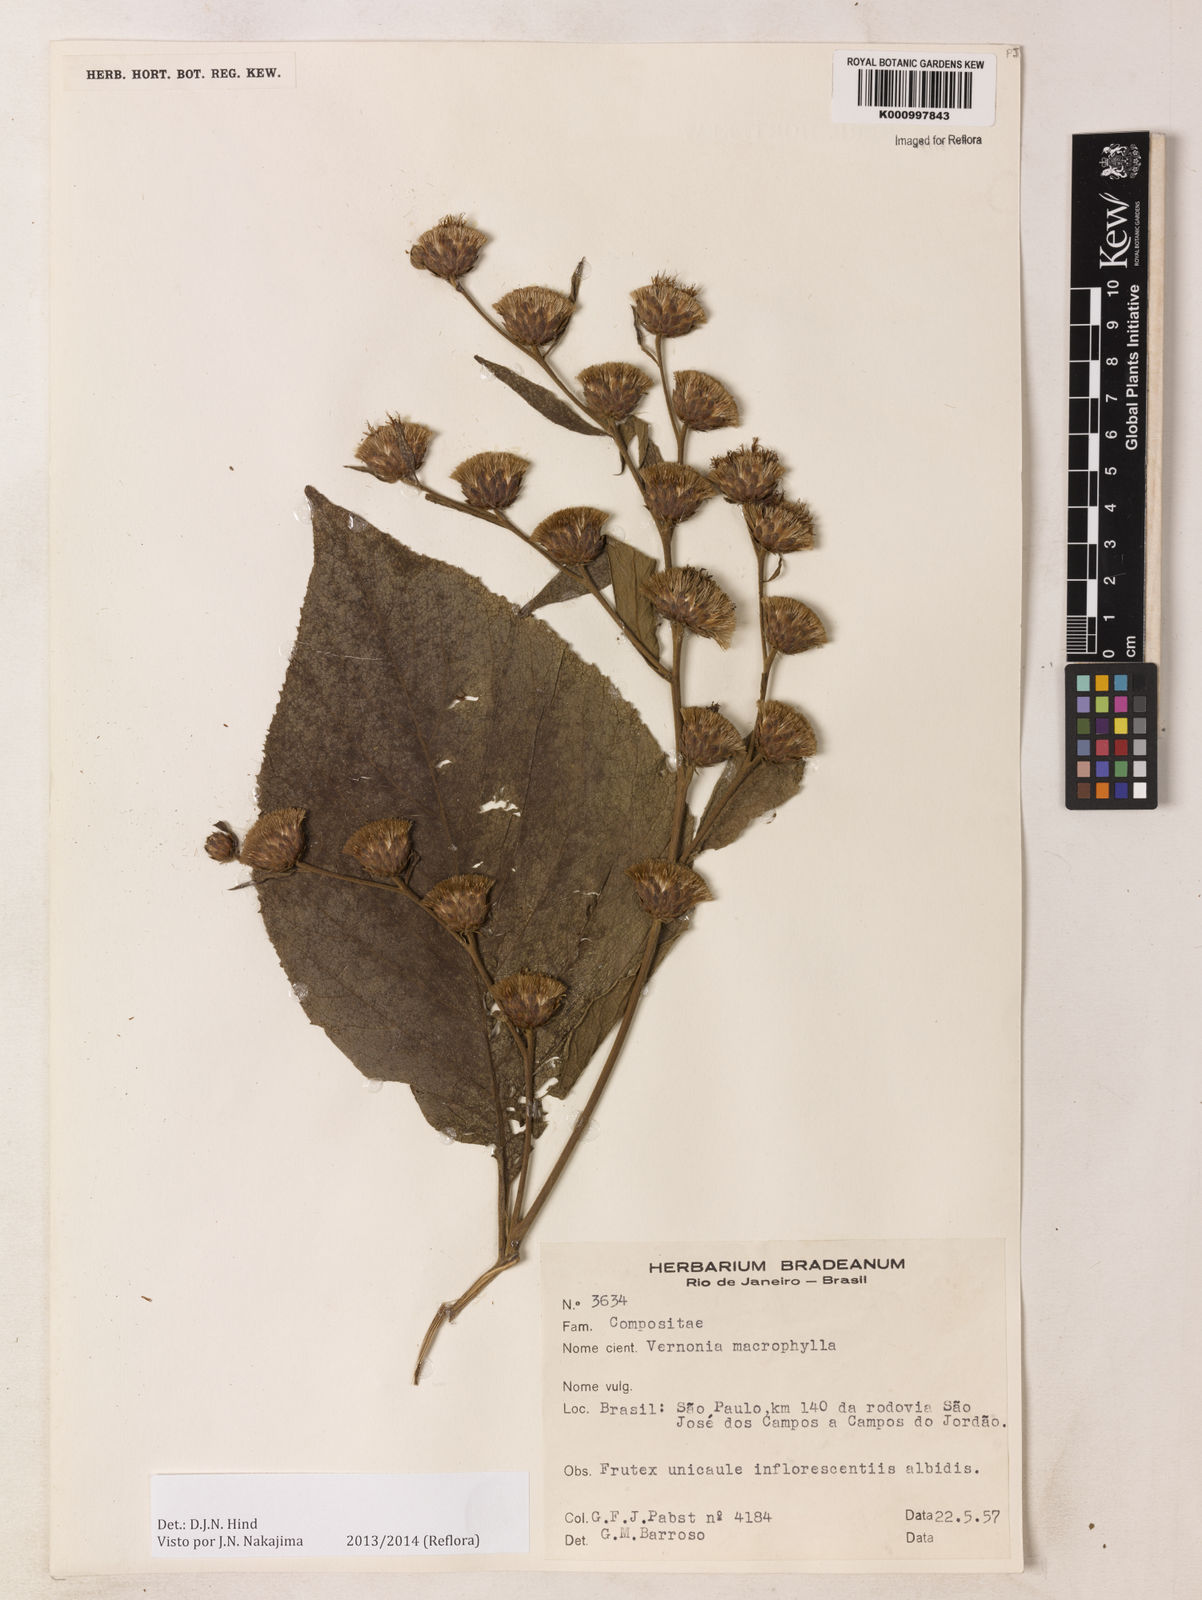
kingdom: Plantae
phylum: Tracheophyta
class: Magnoliopsida
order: Asterales
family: Asteraceae
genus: Lessingianthus
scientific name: Lessingianthus macrophyllus
